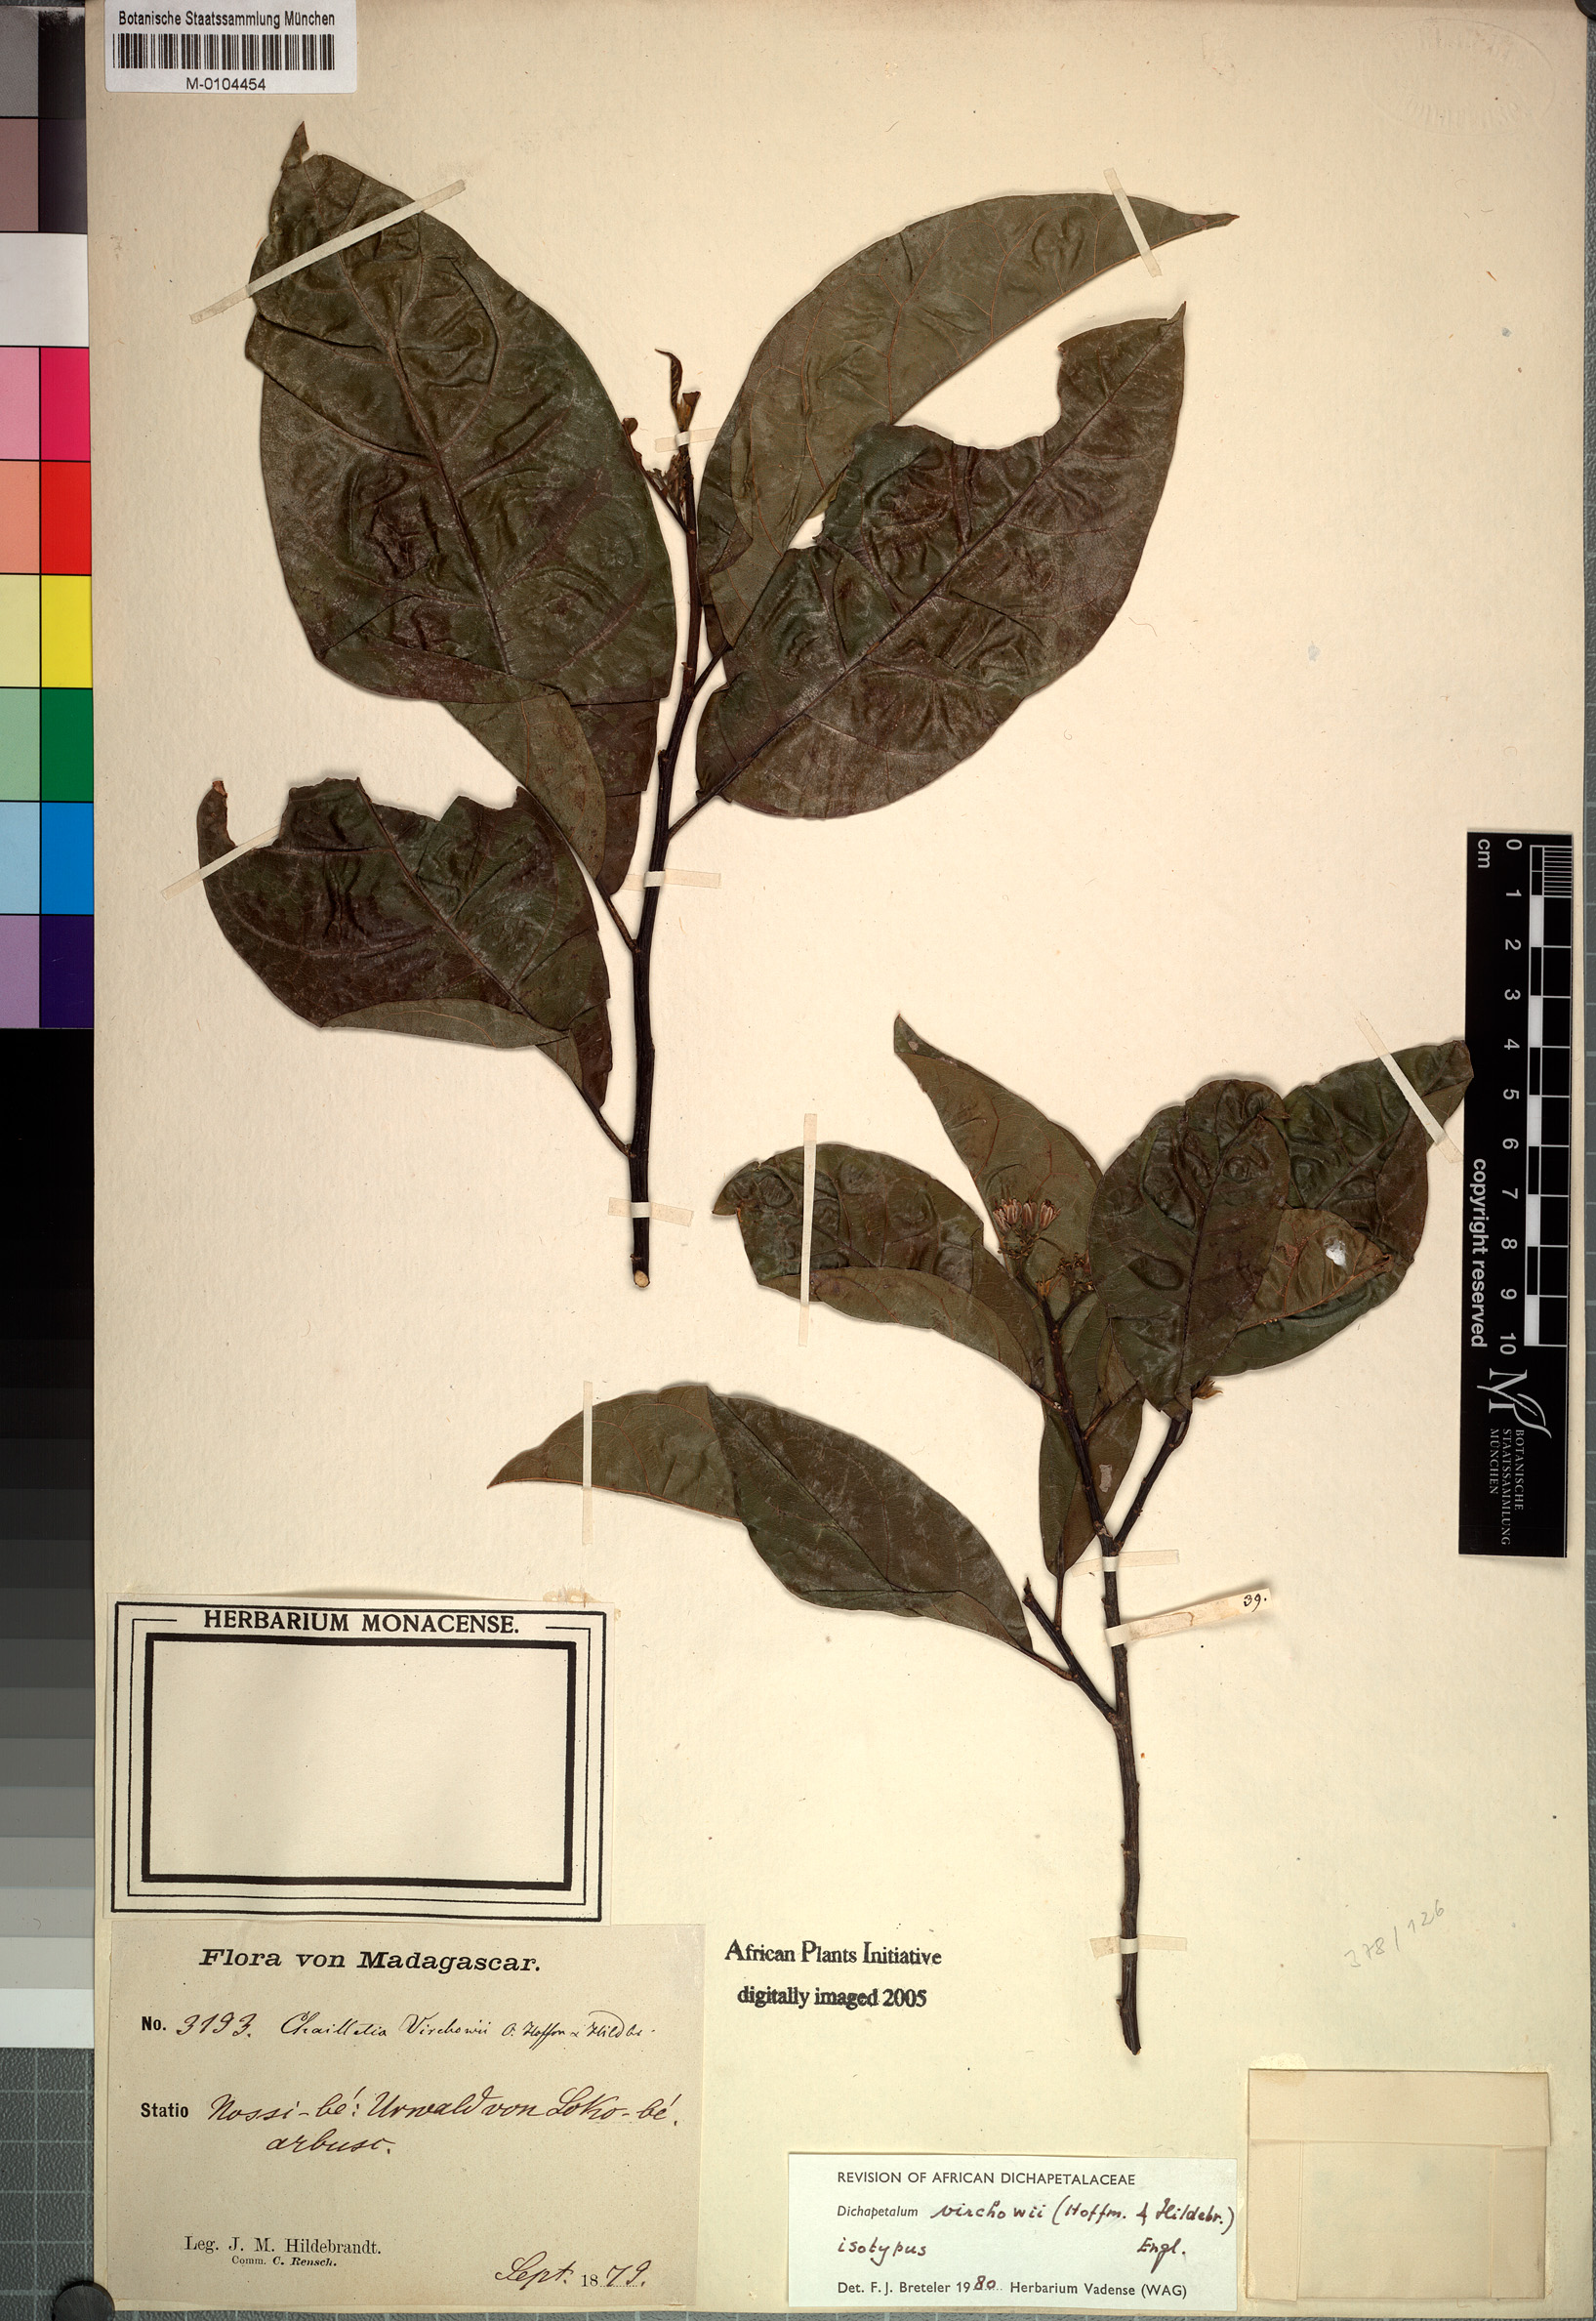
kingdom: Plantae
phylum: Tracheophyta
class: Magnoliopsida
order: Malpighiales
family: Dichapetalaceae
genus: Dichapetalum
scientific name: Dichapetalum virchowii
